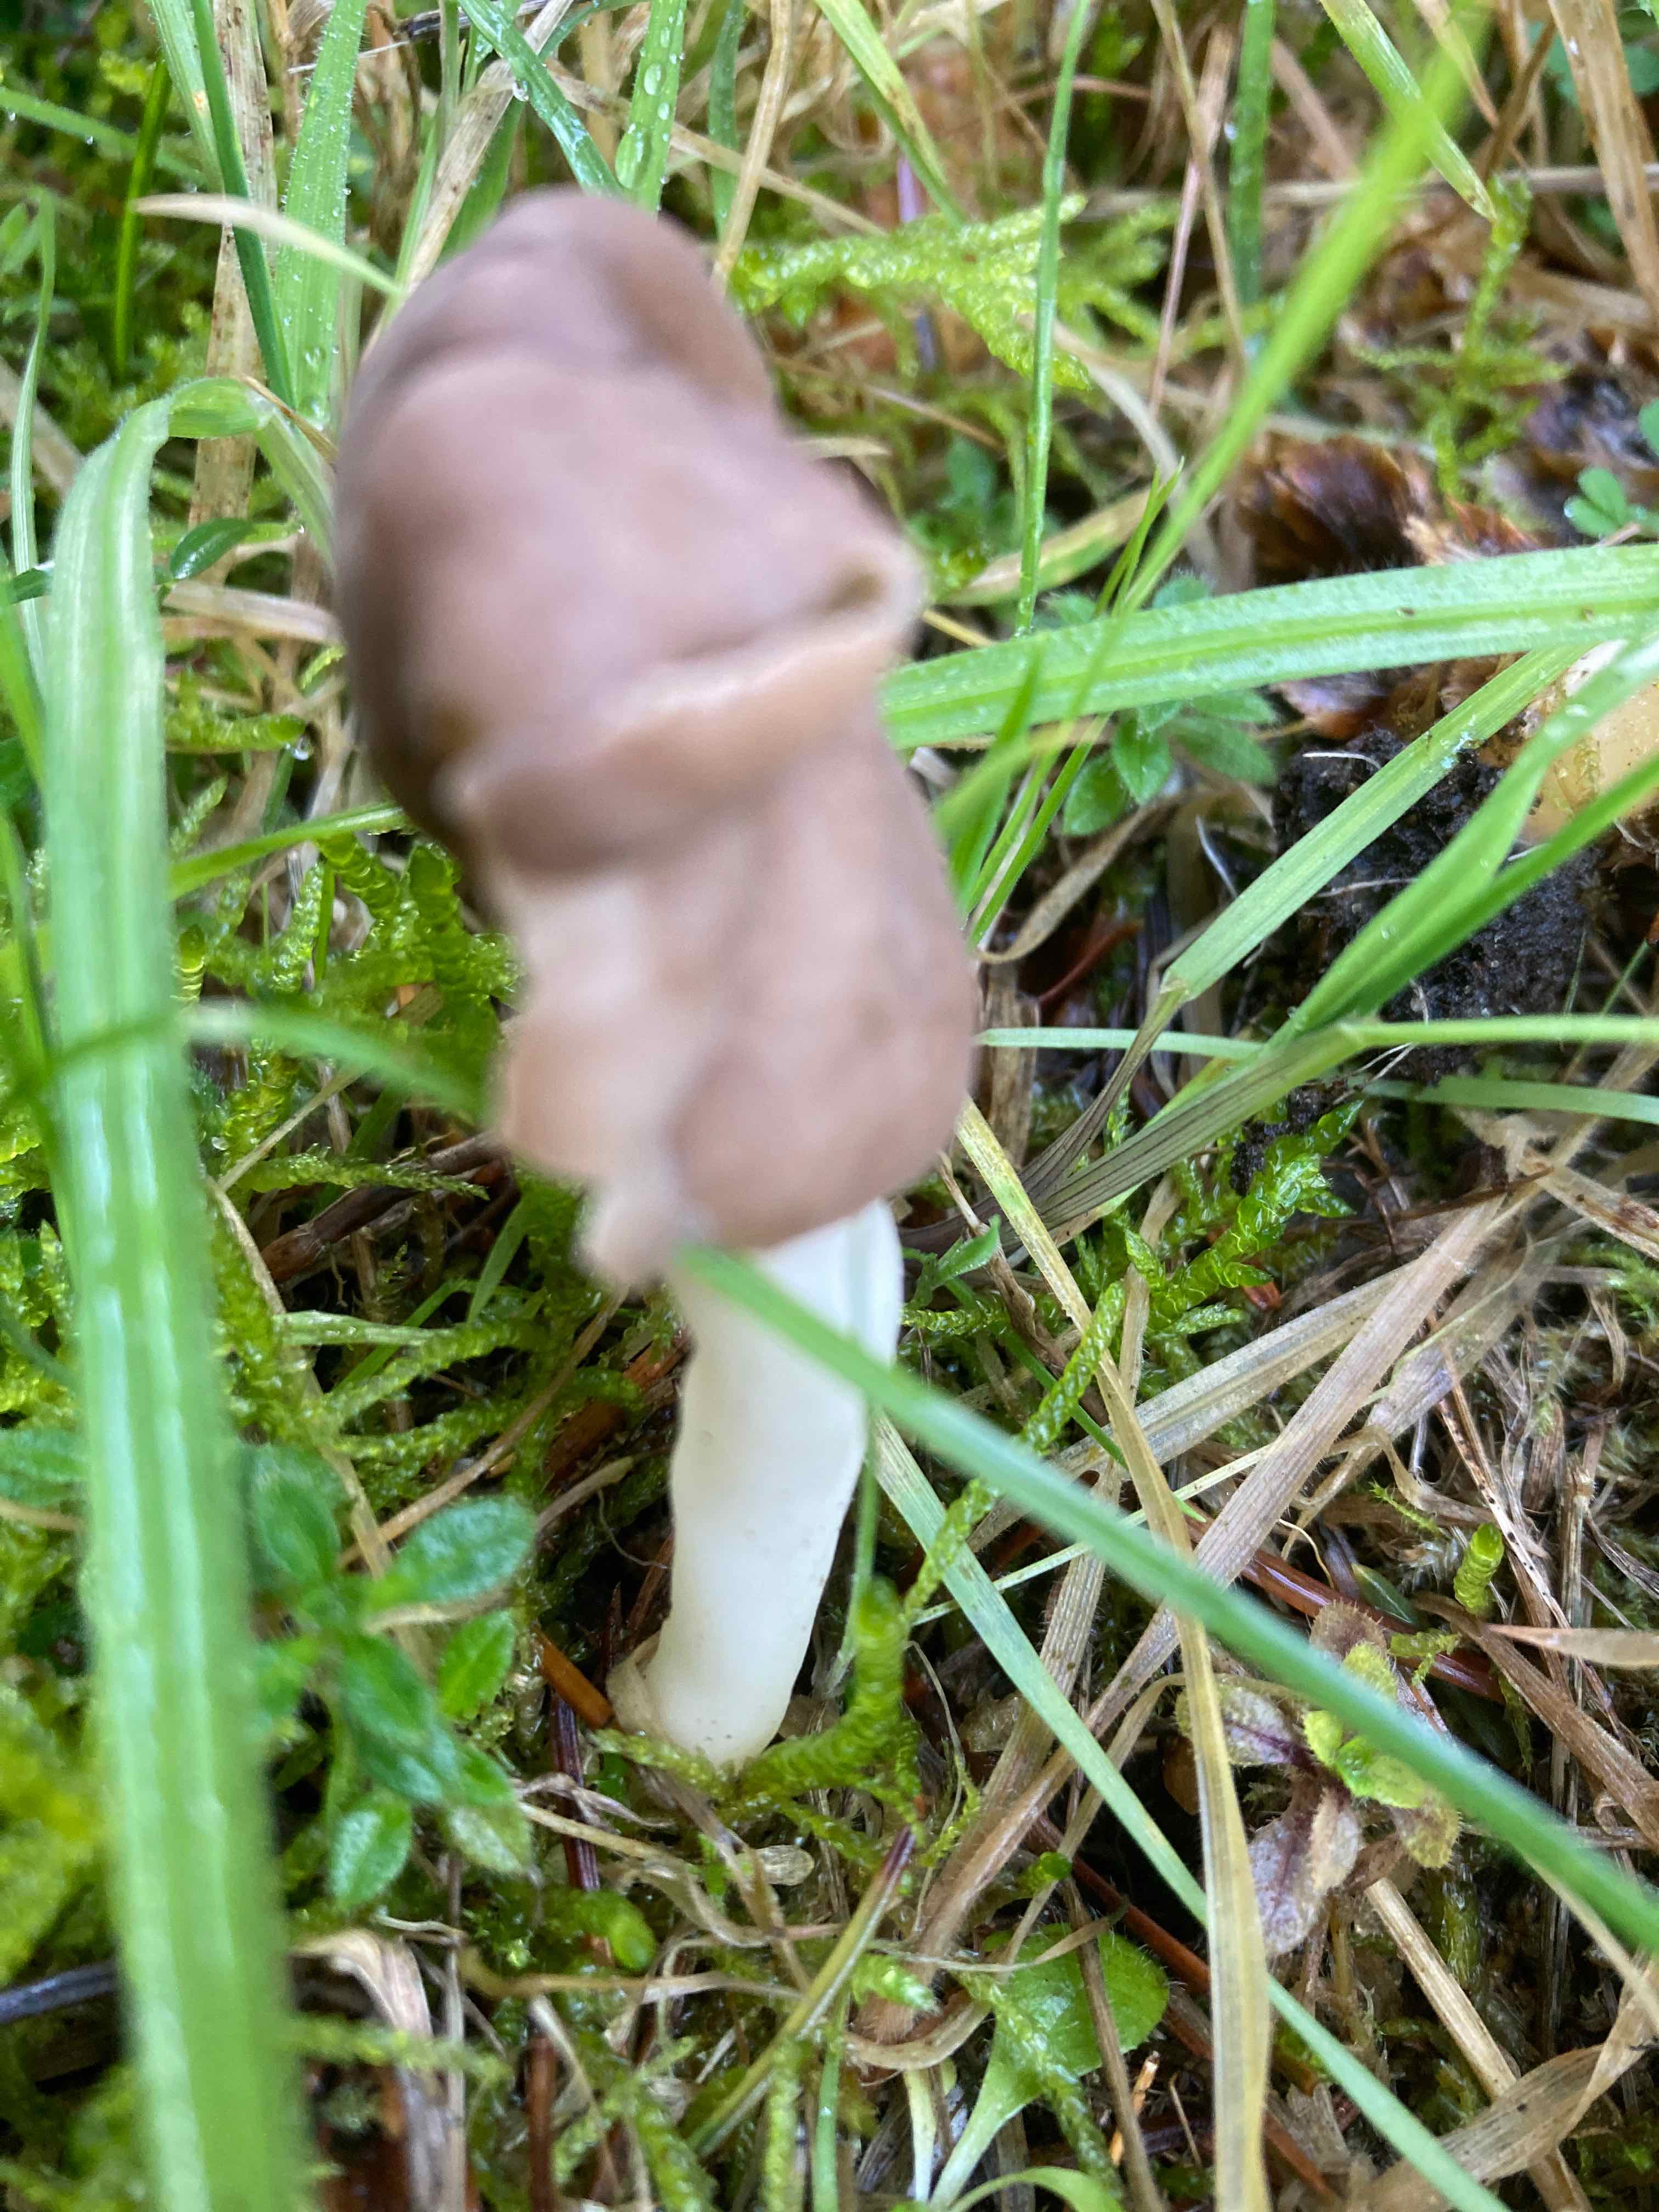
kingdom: Fungi
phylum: Ascomycota
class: Pezizomycetes
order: Pezizales
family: Helvellaceae
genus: Helvella
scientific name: Helvella elastica
